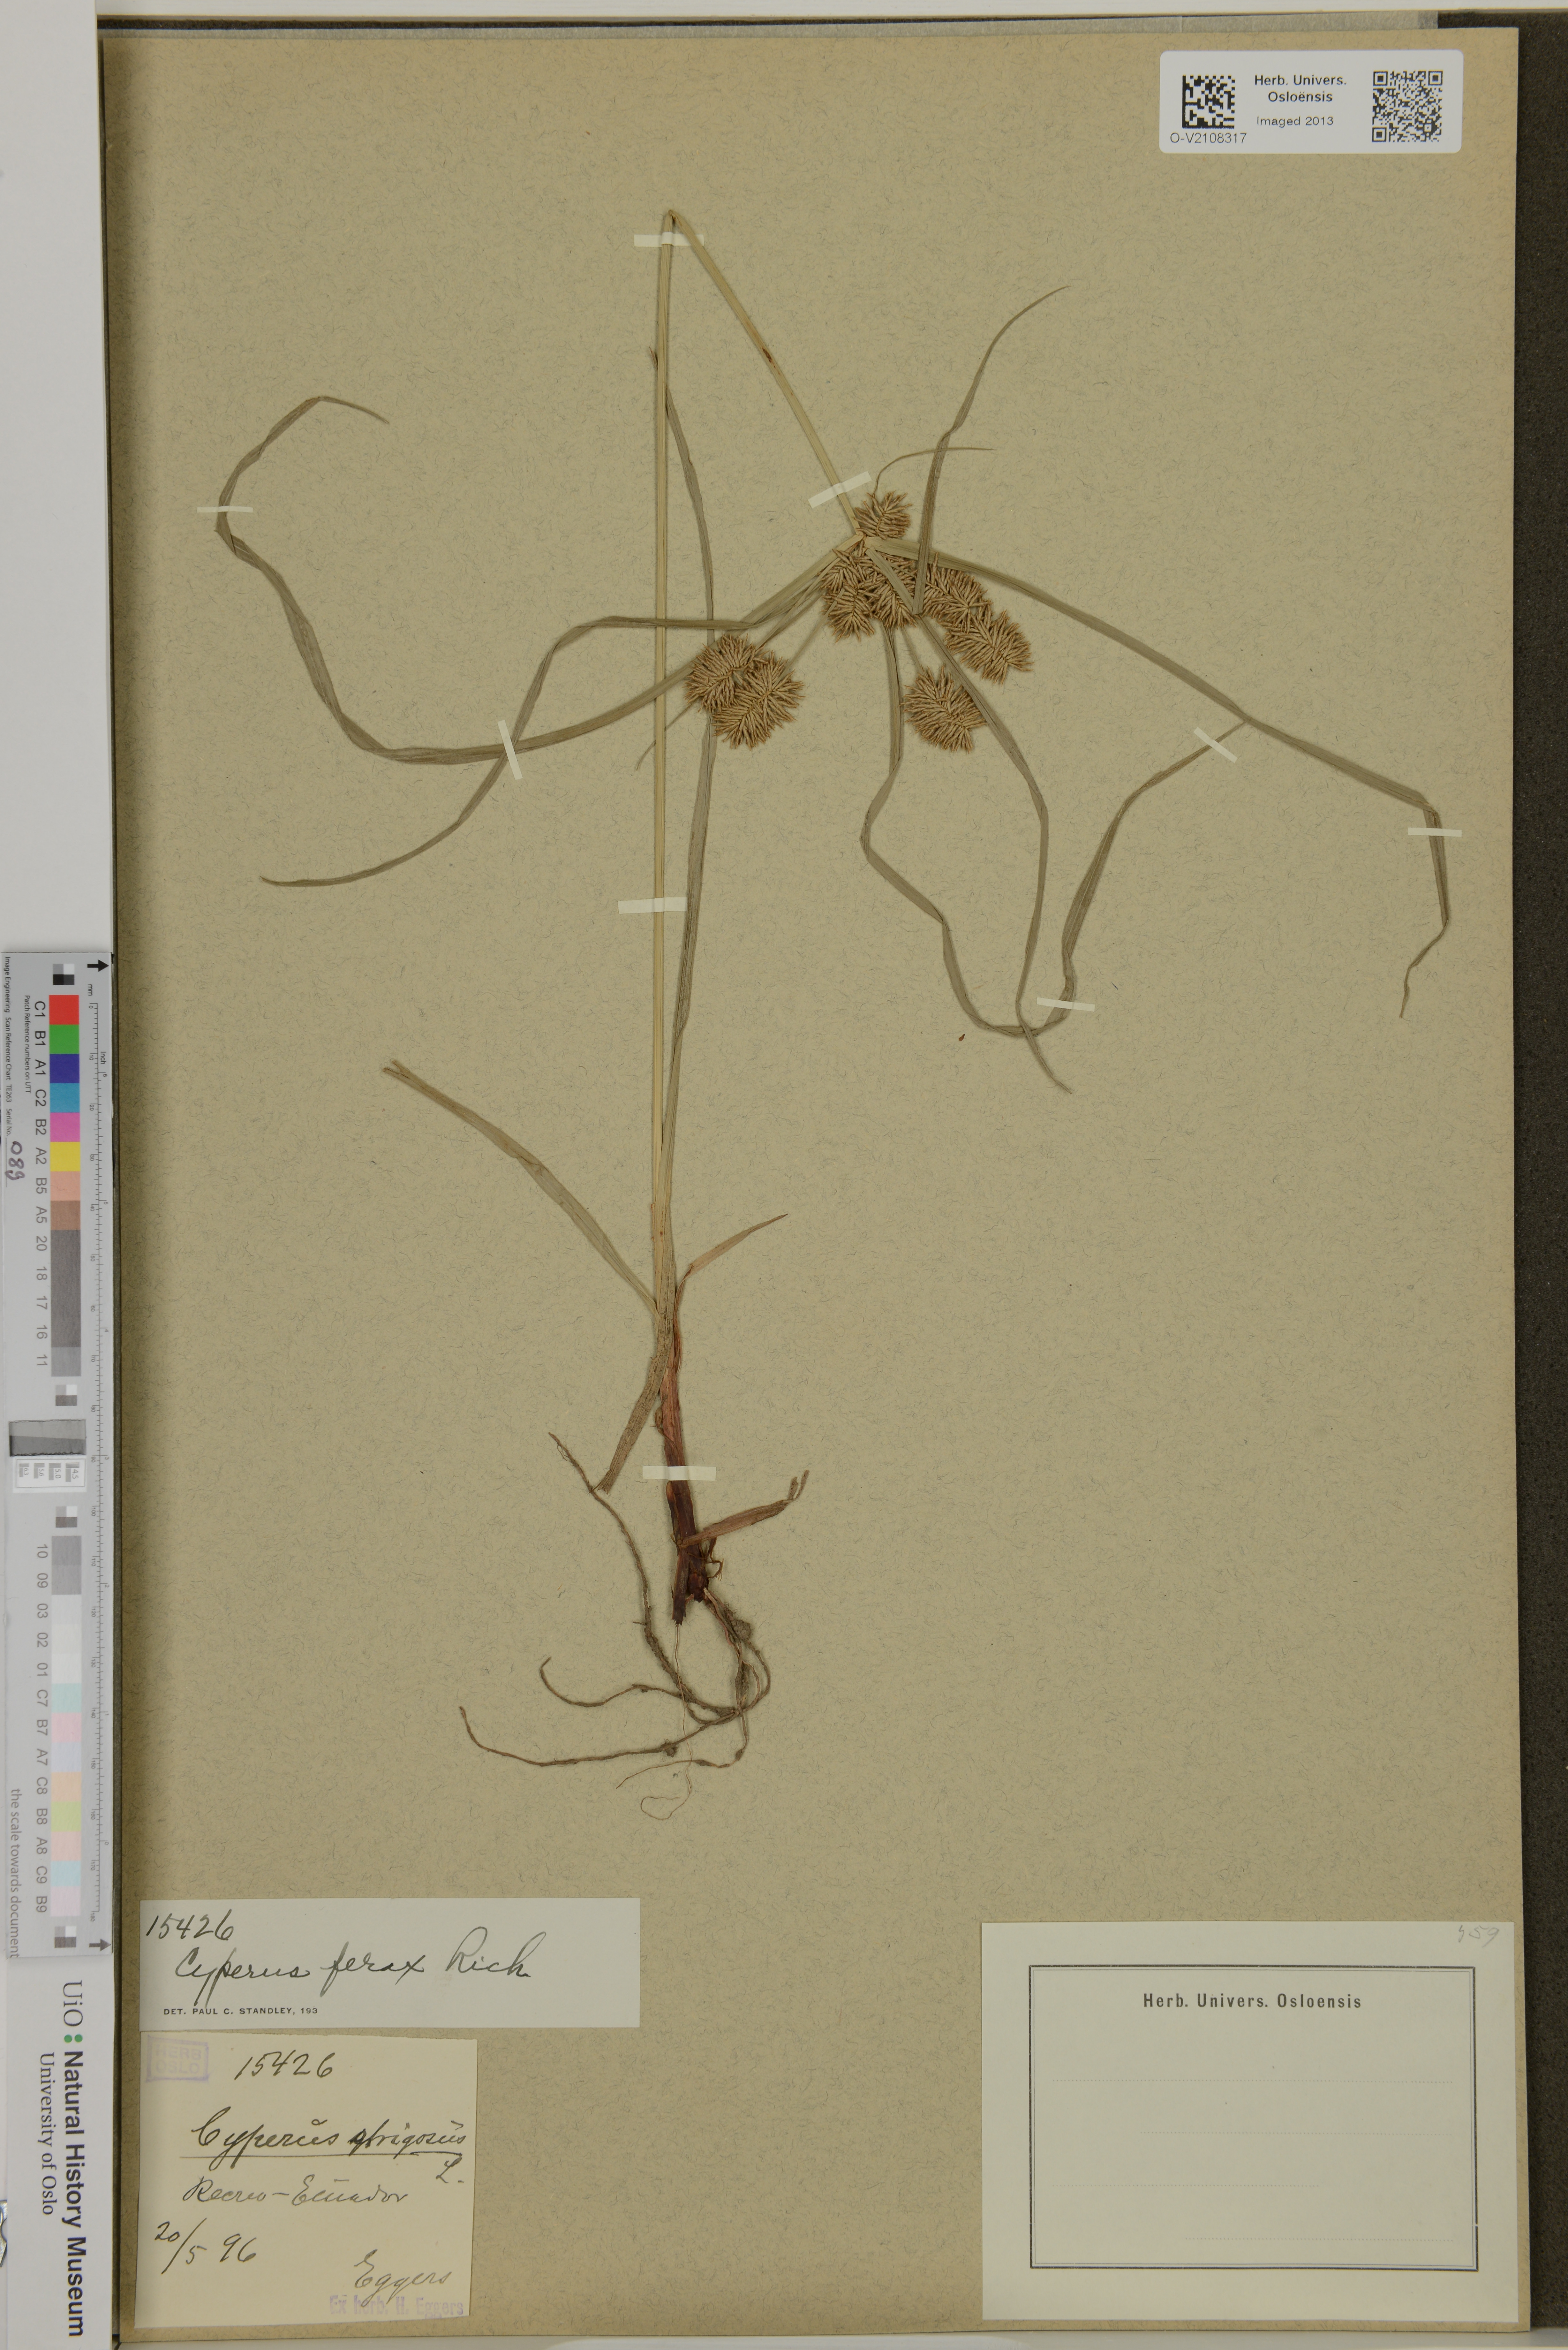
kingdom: Plantae
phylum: Tracheophyta
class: Liliopsida
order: Poales
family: Cyperaceae
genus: Cyperus
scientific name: Cyperus ferax
